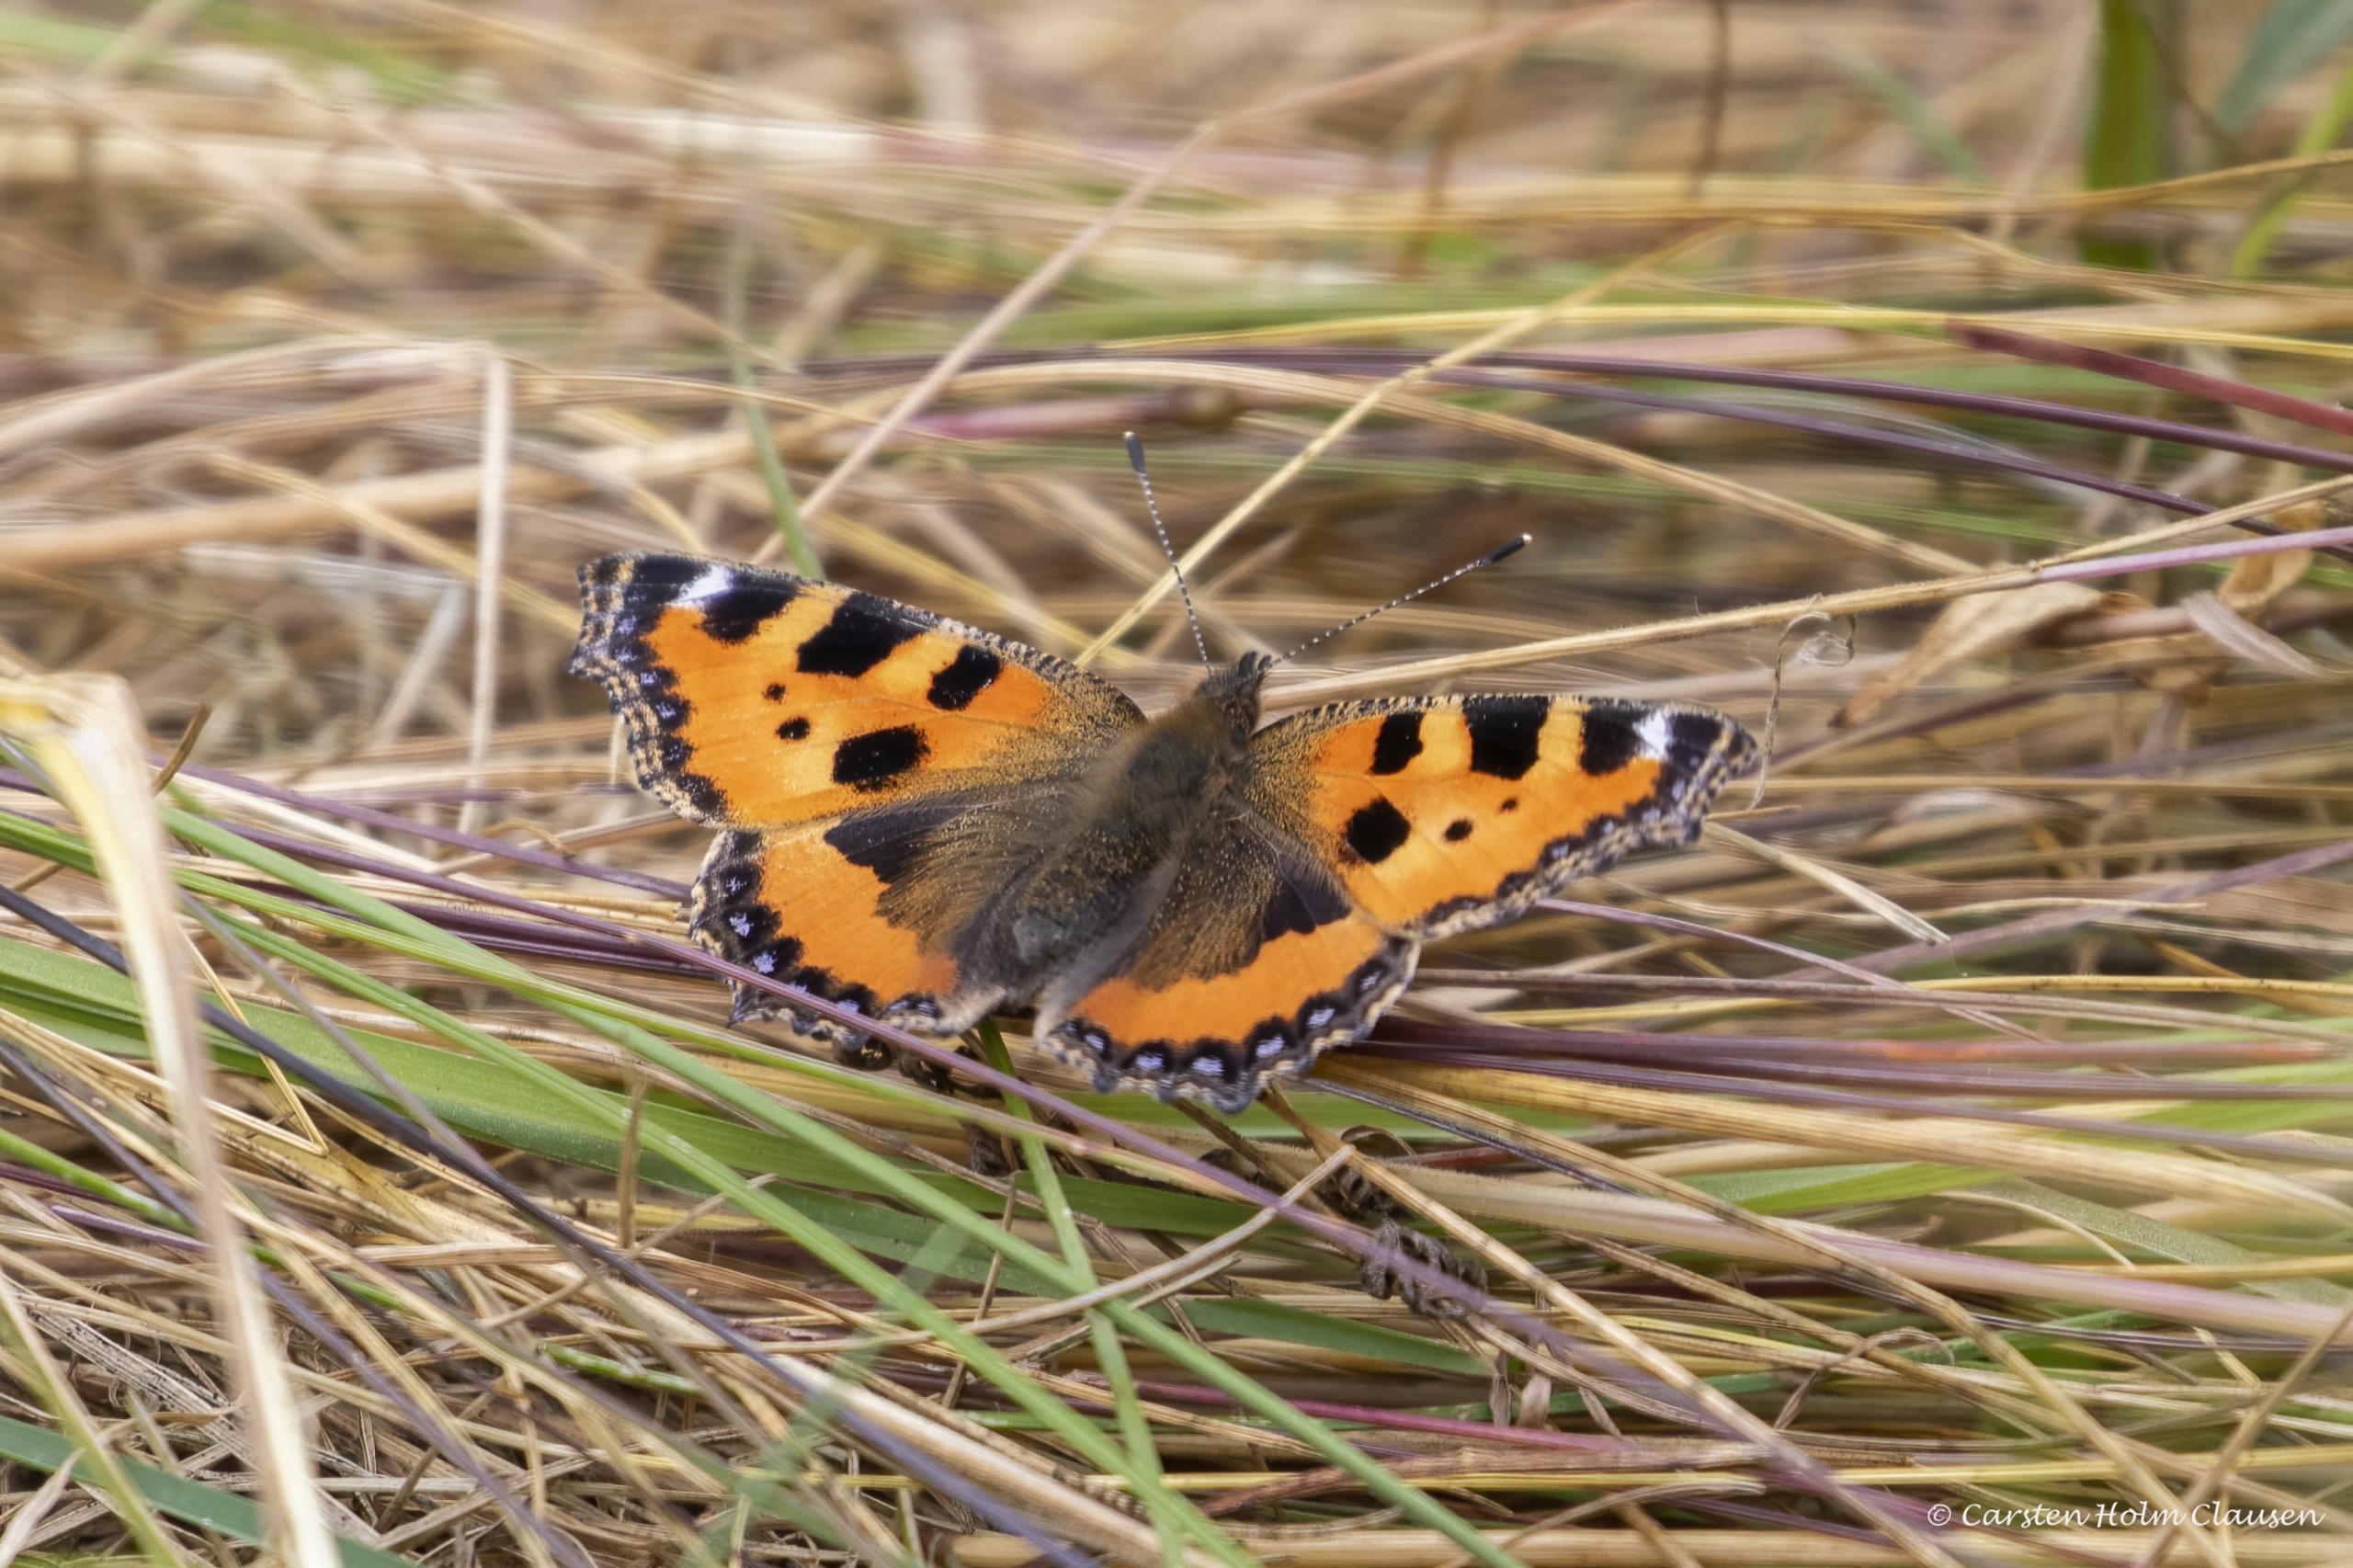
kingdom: Animalia
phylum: Arthropoda
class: Insecta
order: Lepidoptera
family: Nymphalidae
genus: Aglais
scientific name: Aglais urticae
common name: Nældens takvinge
